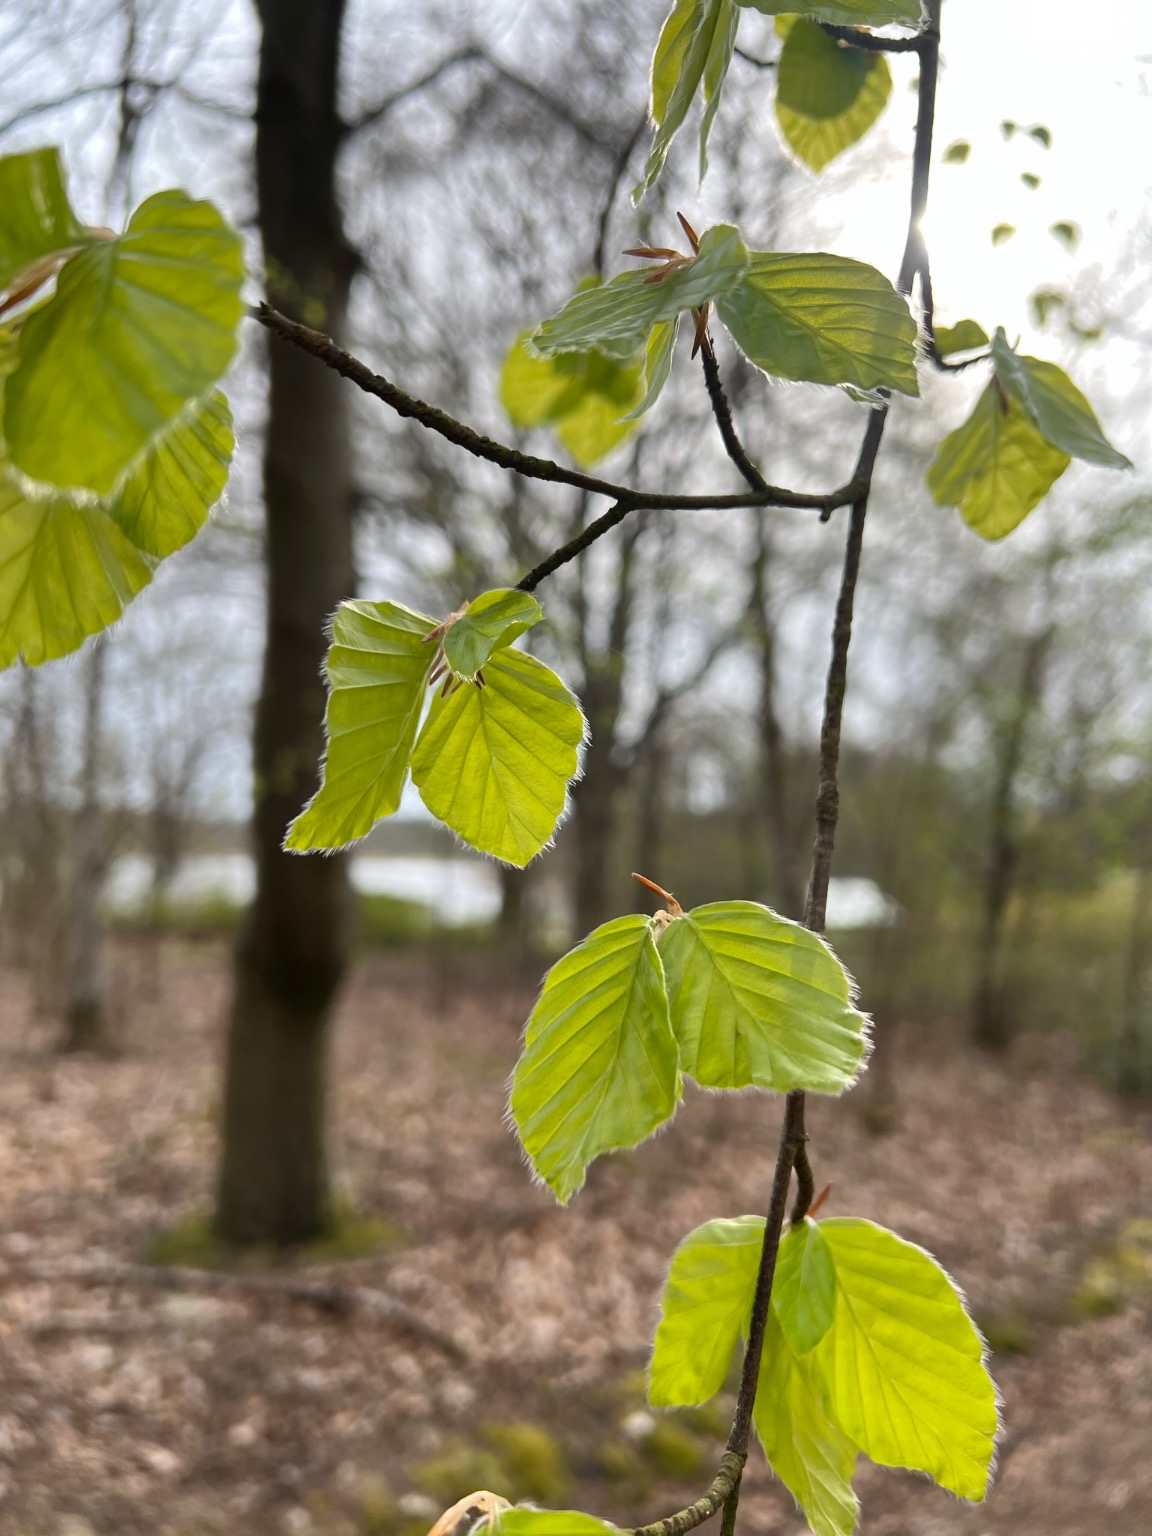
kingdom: Plantae
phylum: Tracheophyta
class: Magnoliopsida
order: Fagales
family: Fagaceae
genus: Fagus
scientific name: Fagus sylvatica
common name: Bøg
